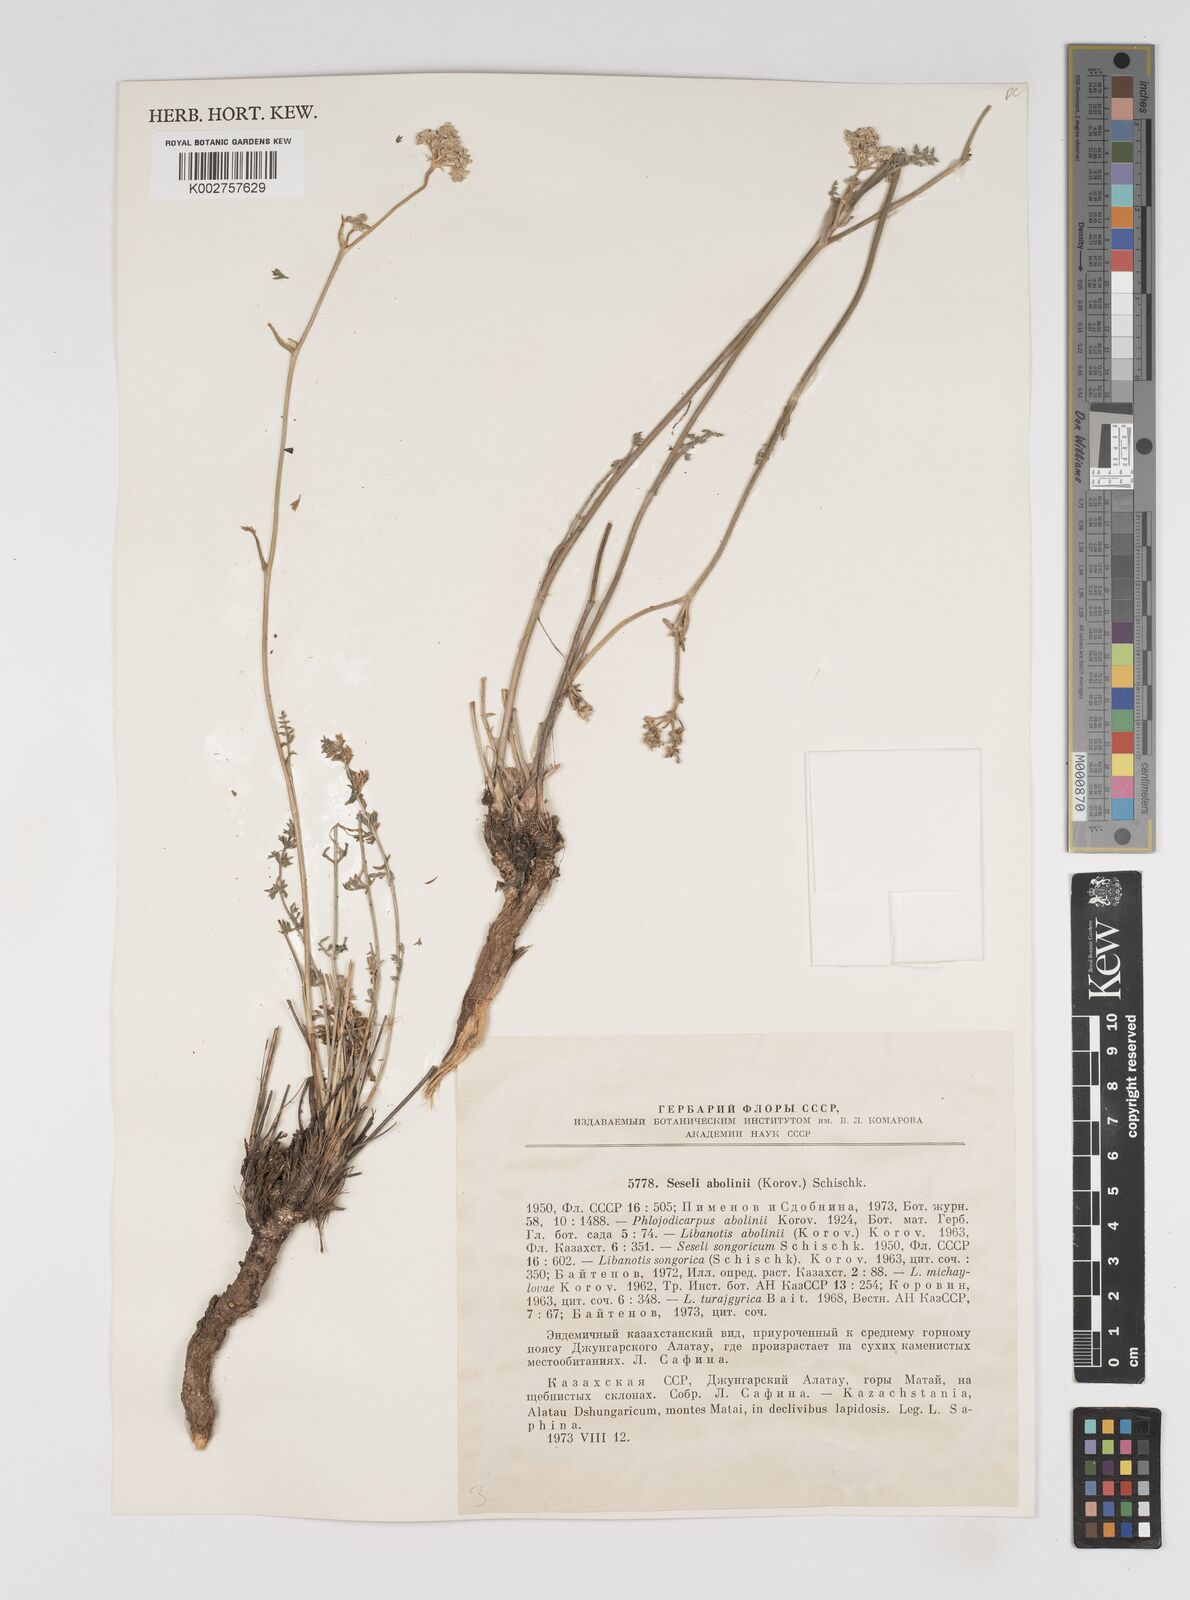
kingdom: Plantae
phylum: Tracheophyta
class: Magnoliopsida
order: Apiales
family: Apiaceae
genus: Seseli
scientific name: Seseli abolinii
